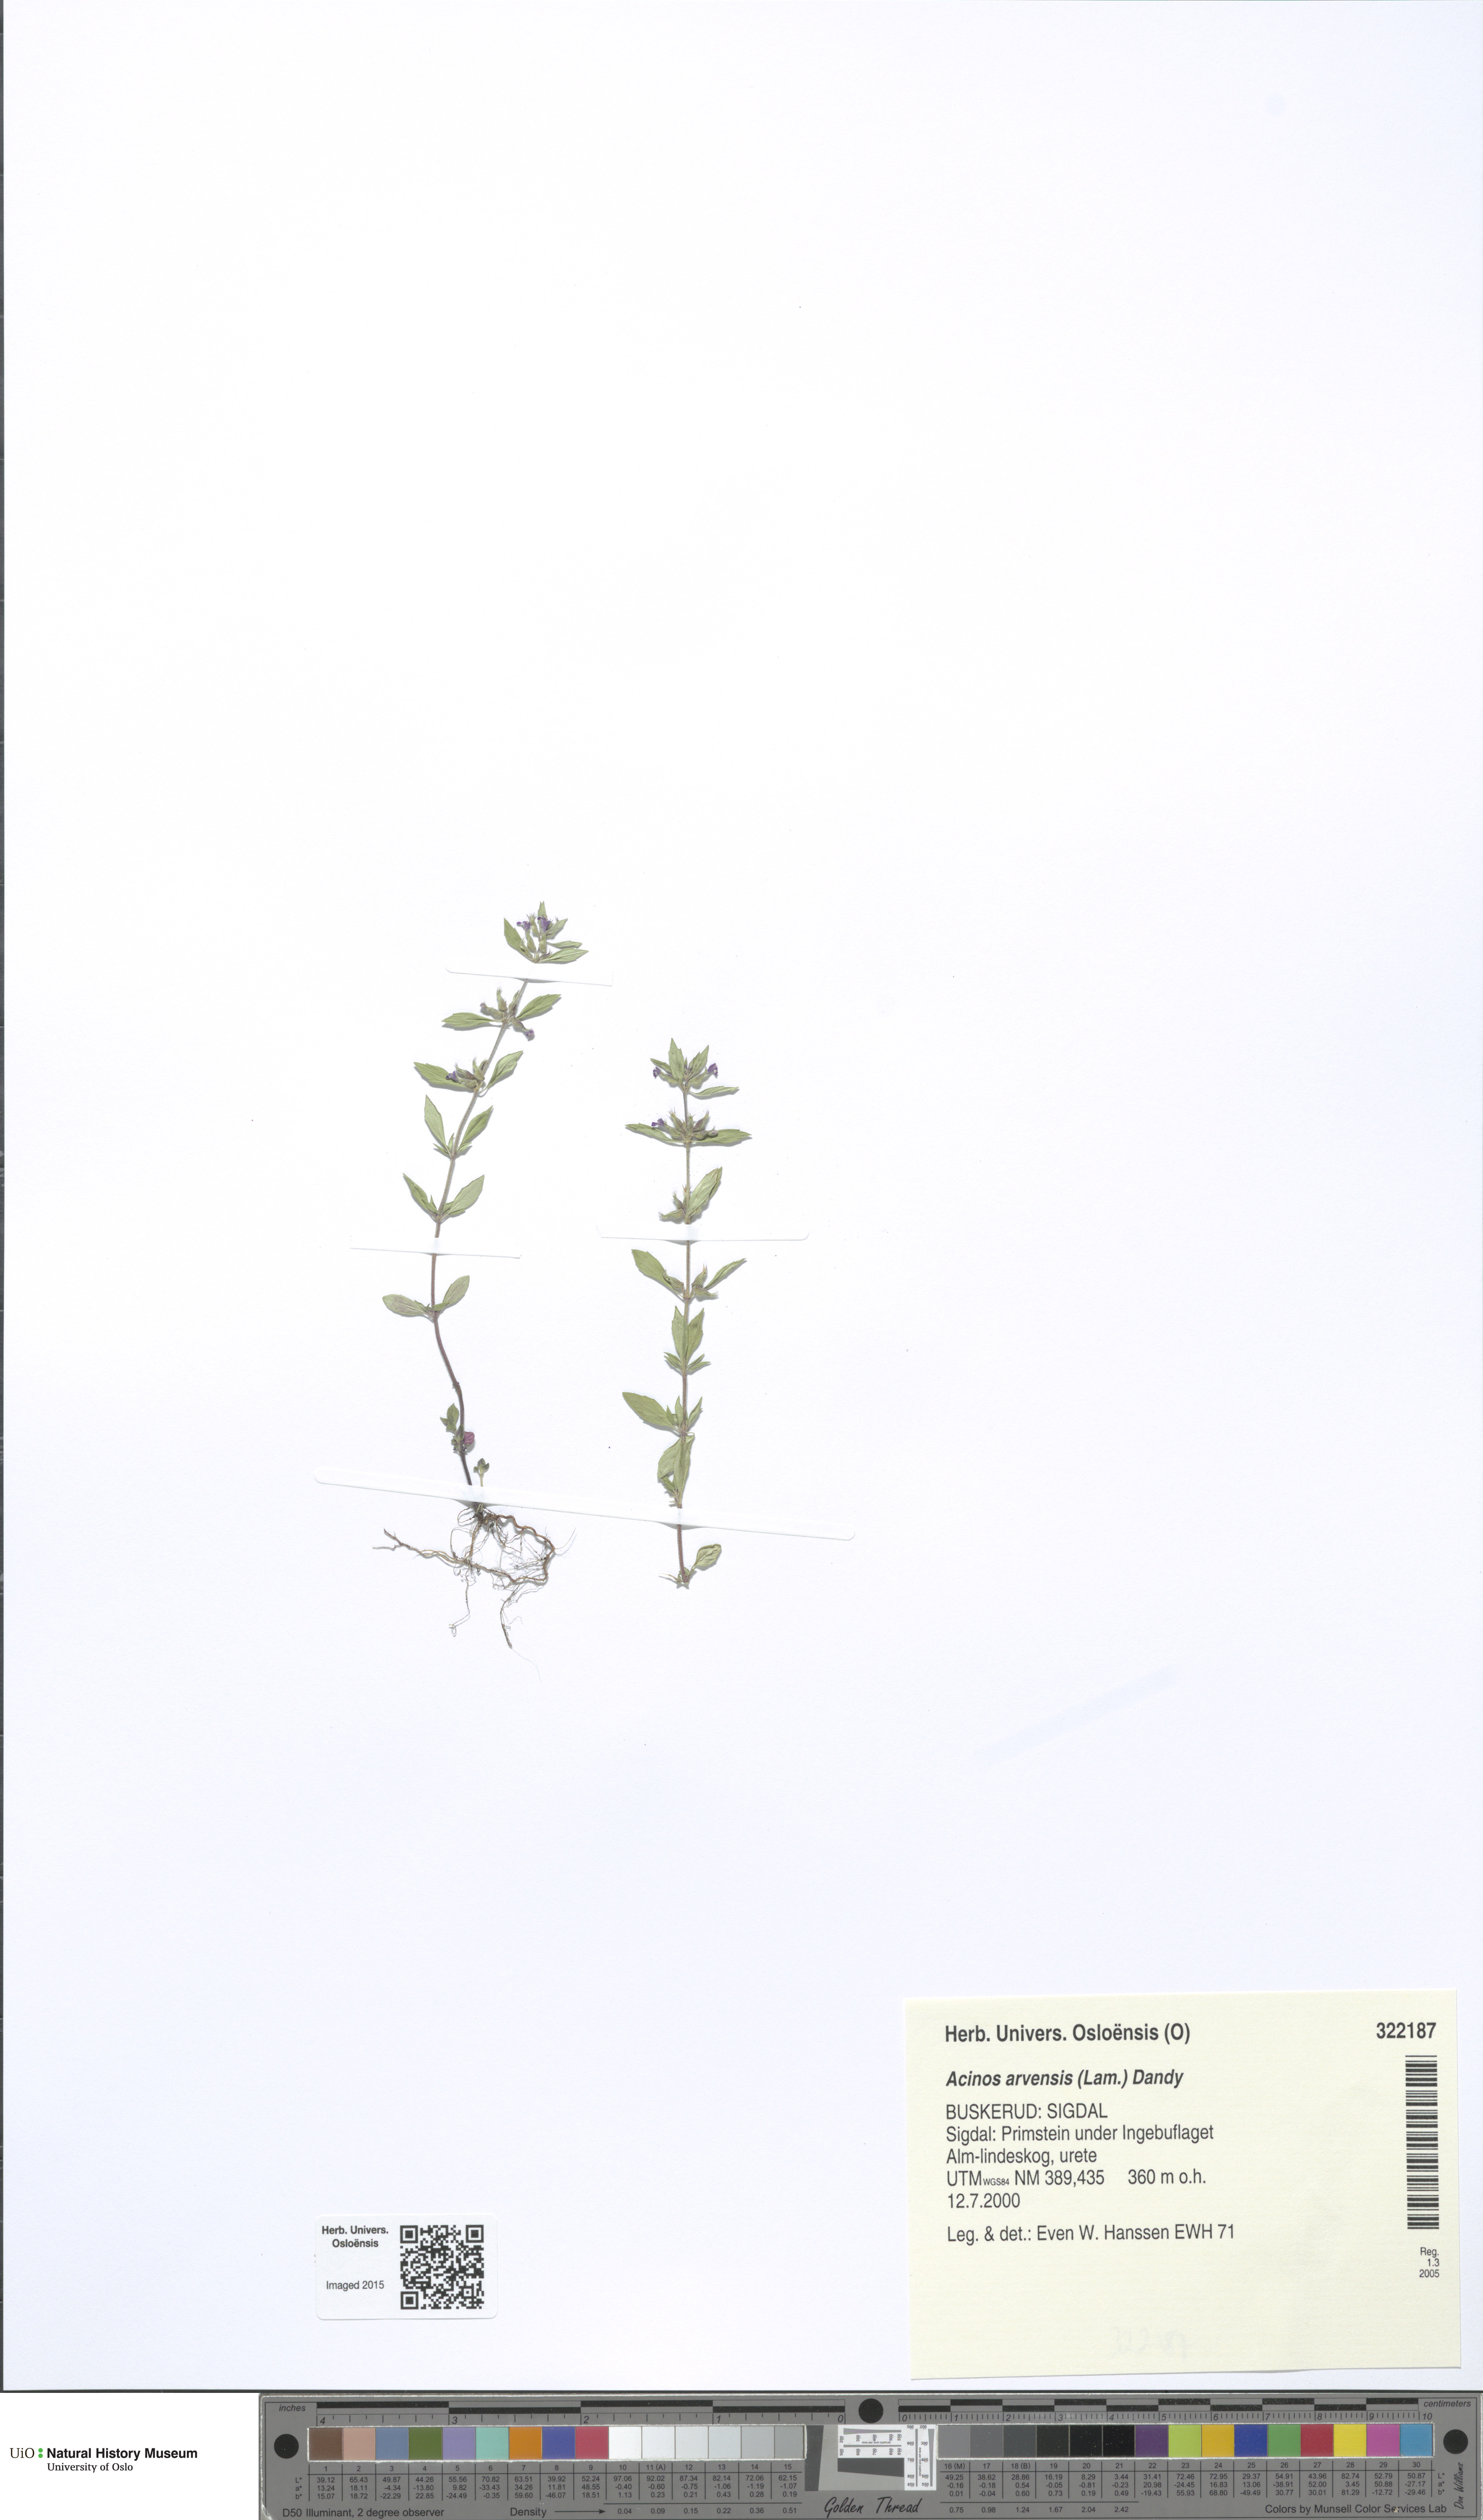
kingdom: Plantae
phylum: Tracheophyta
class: Magnoliopsida
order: Lamiales
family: Lamiaceae
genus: Clinopodium
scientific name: Clinopodium acinos
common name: Basil thyme
